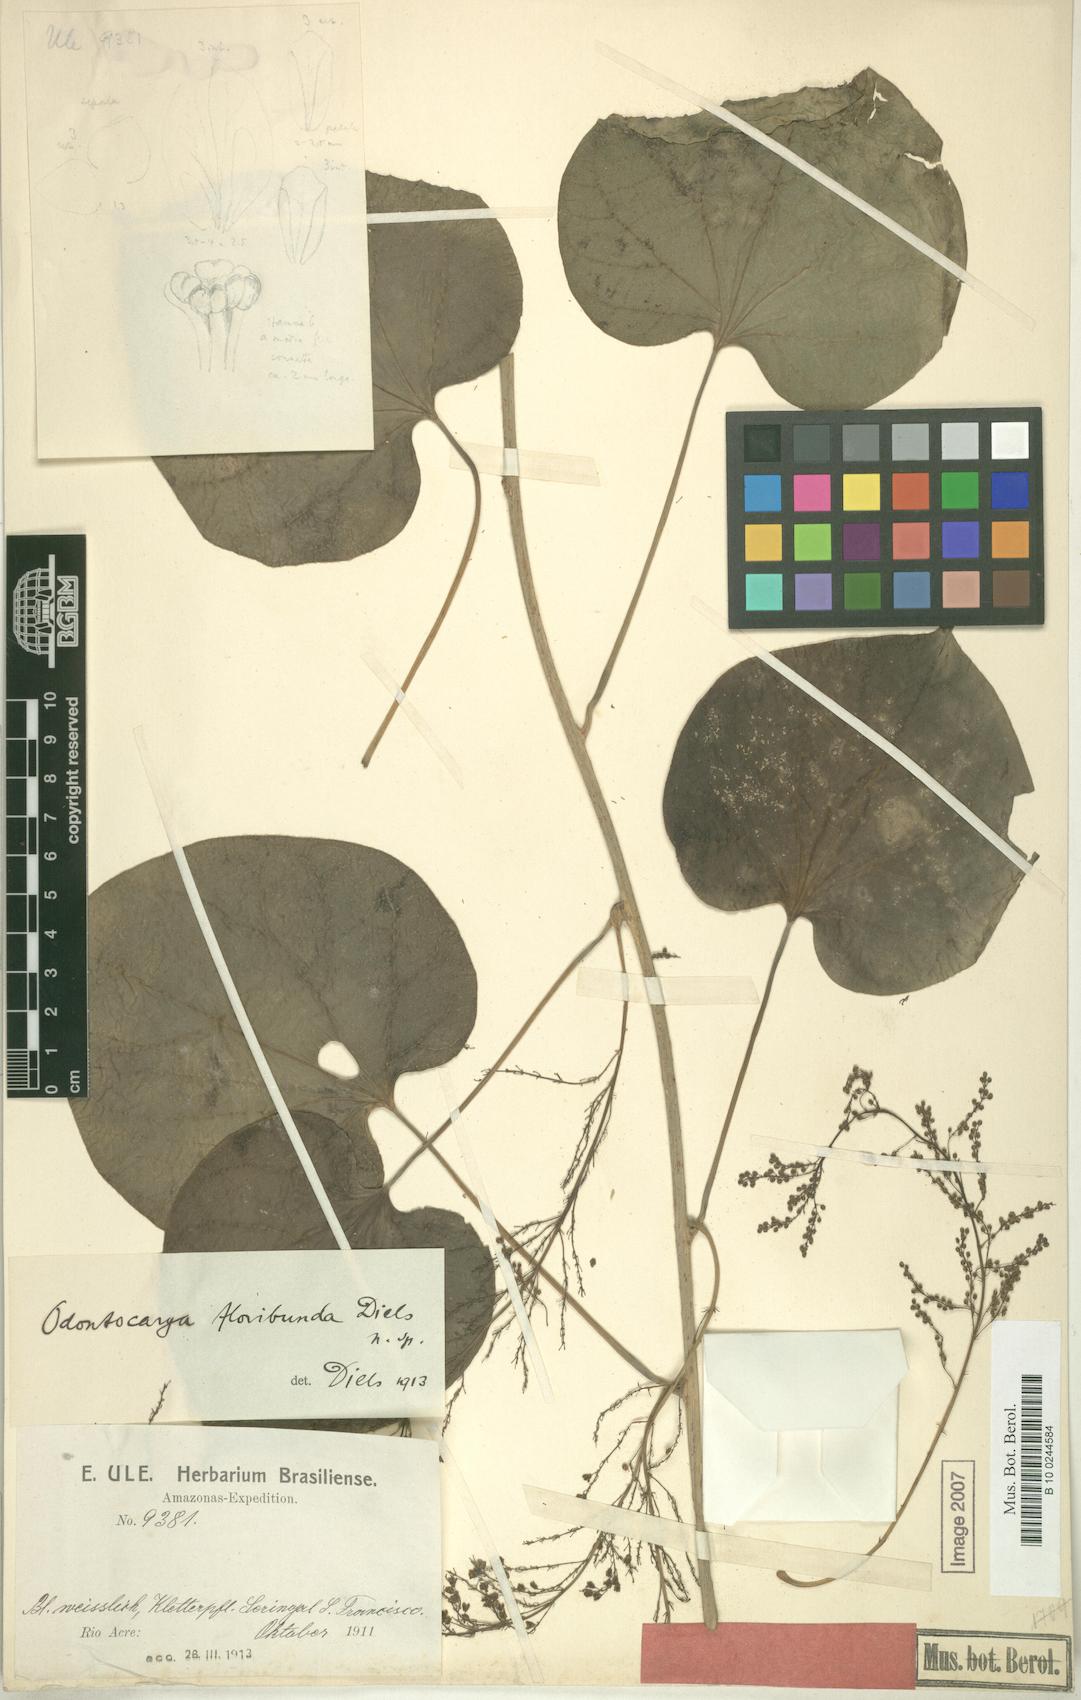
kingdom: Plantae
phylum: Tracheophyta
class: Magnoliopsida
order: Ranunculales
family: Menispermaceae
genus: Odontocarya
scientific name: Odontocarya floribunda
